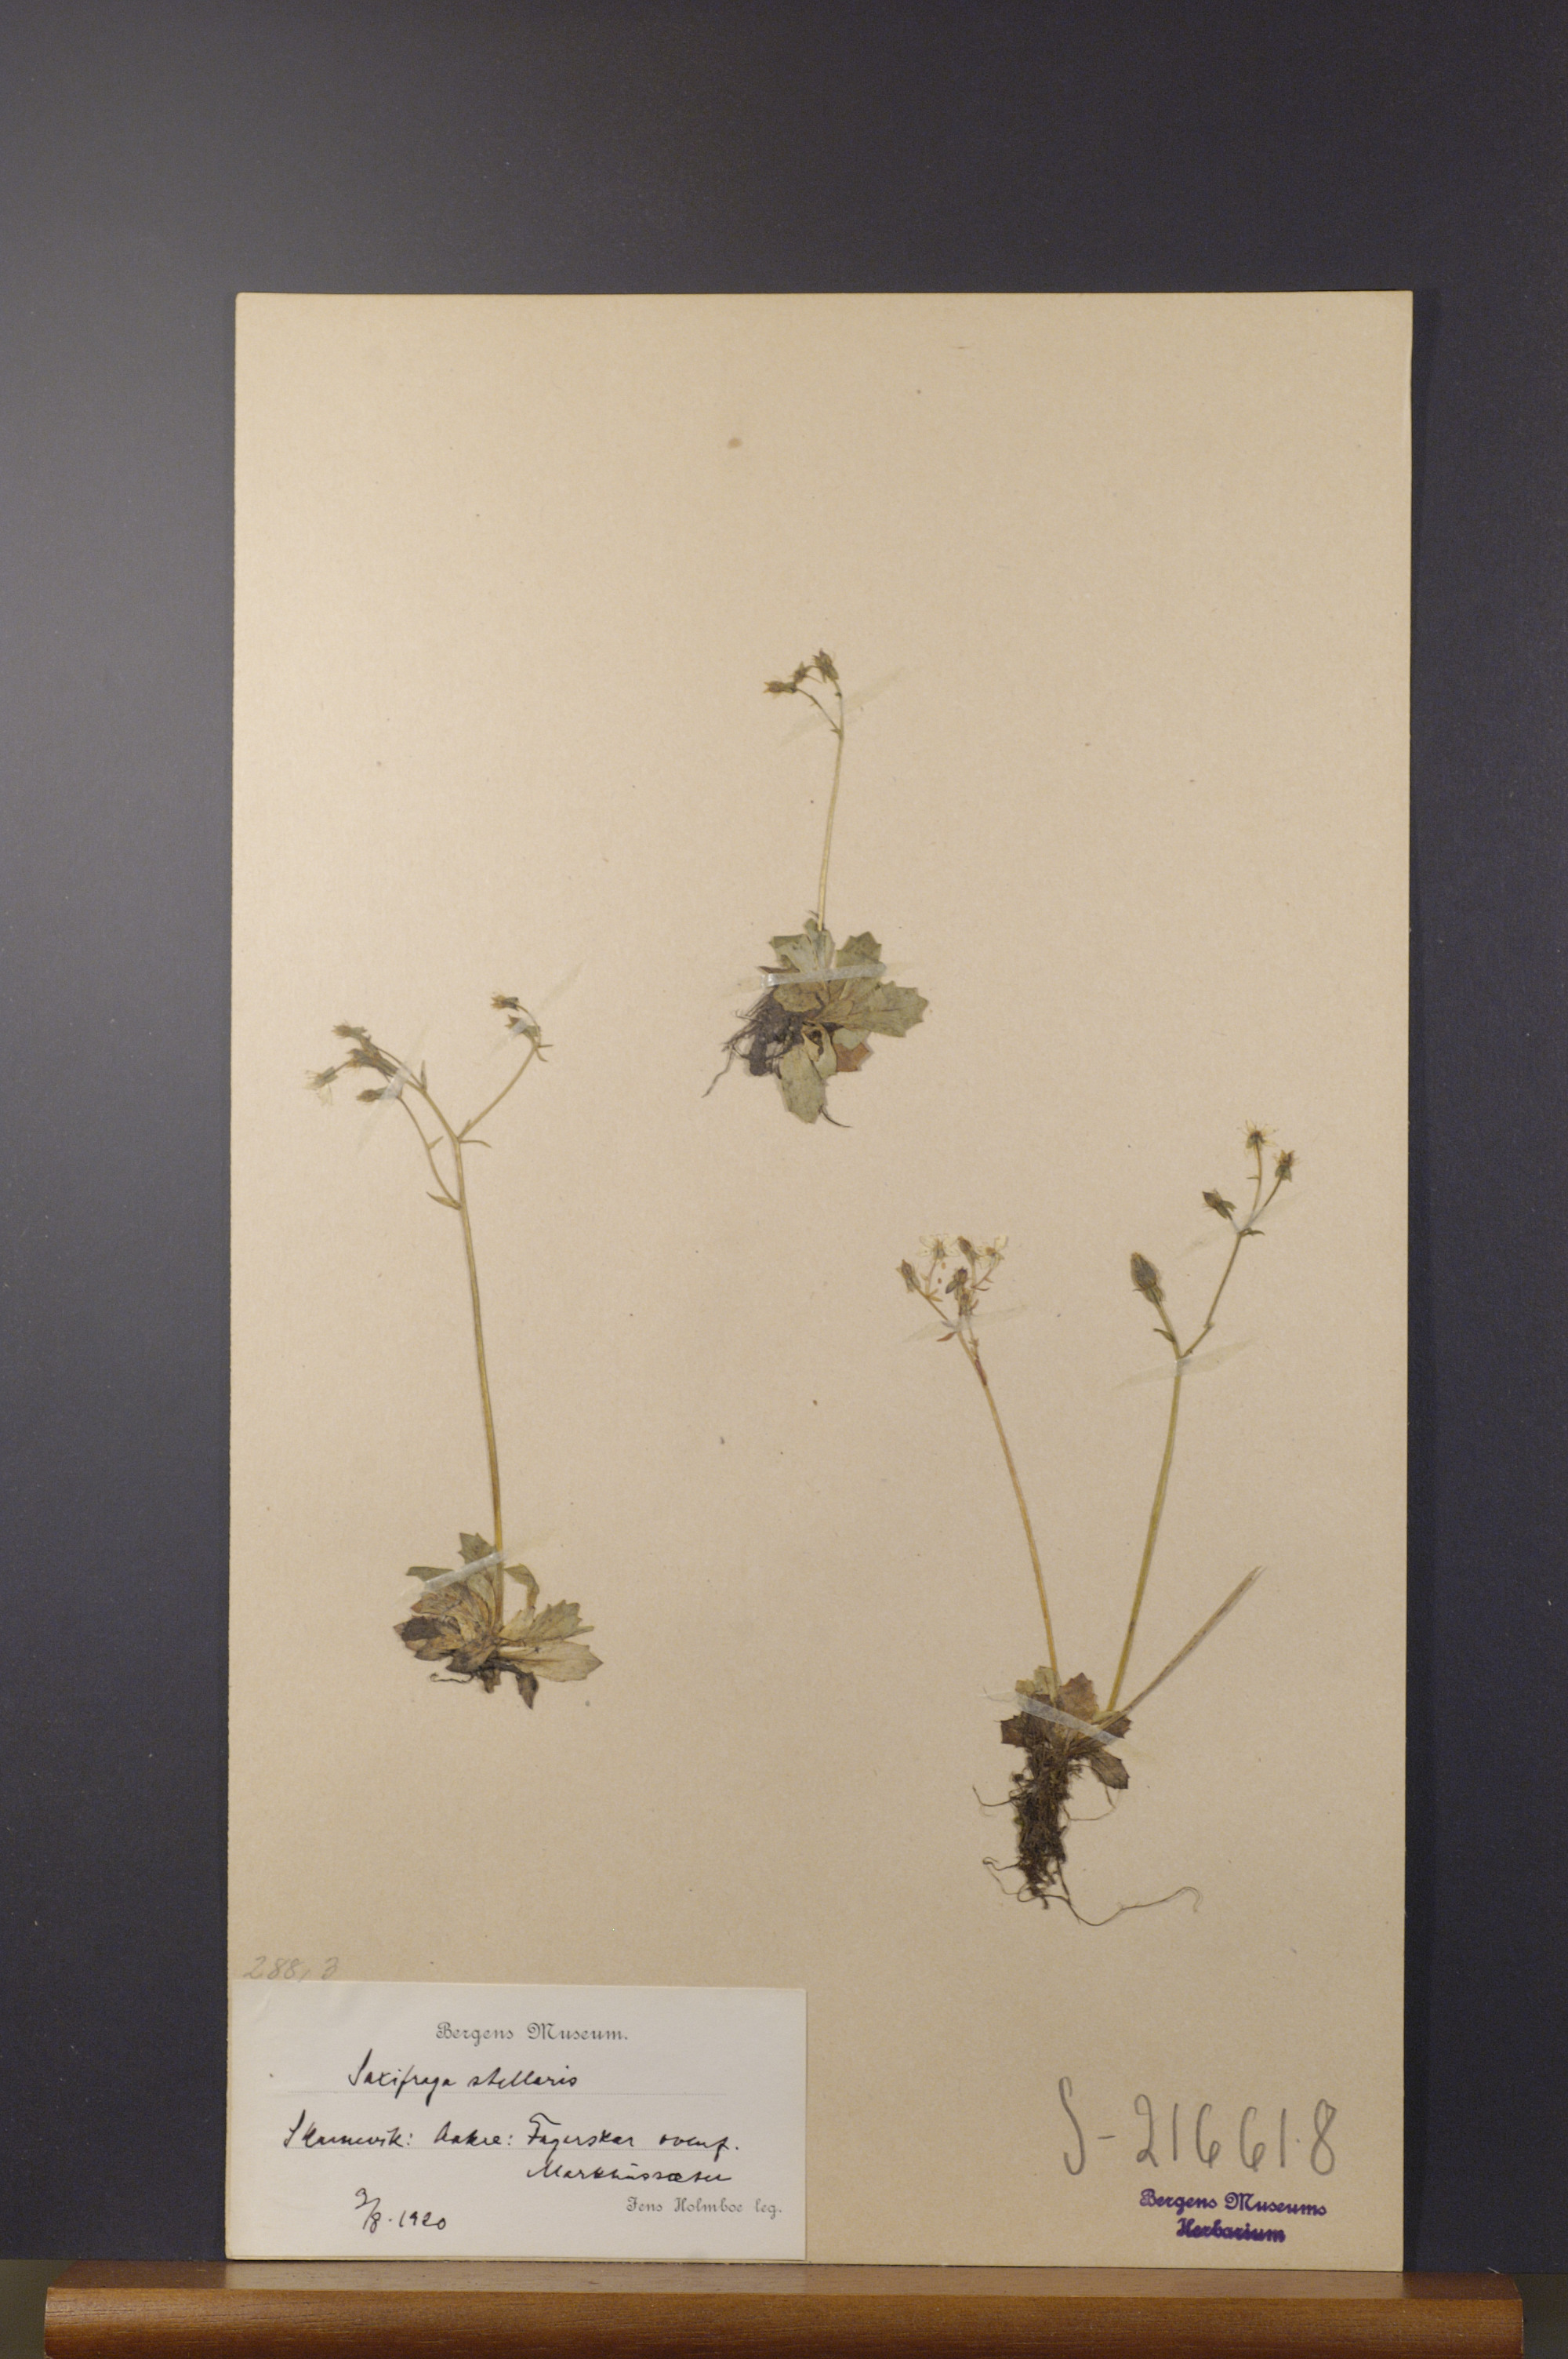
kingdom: Plantae
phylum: Tracheophyta
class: Magnoliopsida
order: Saxifragales
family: Saxifragaceae
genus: Micranthes
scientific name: Micranthes stellaris
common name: Starry saxifrage
